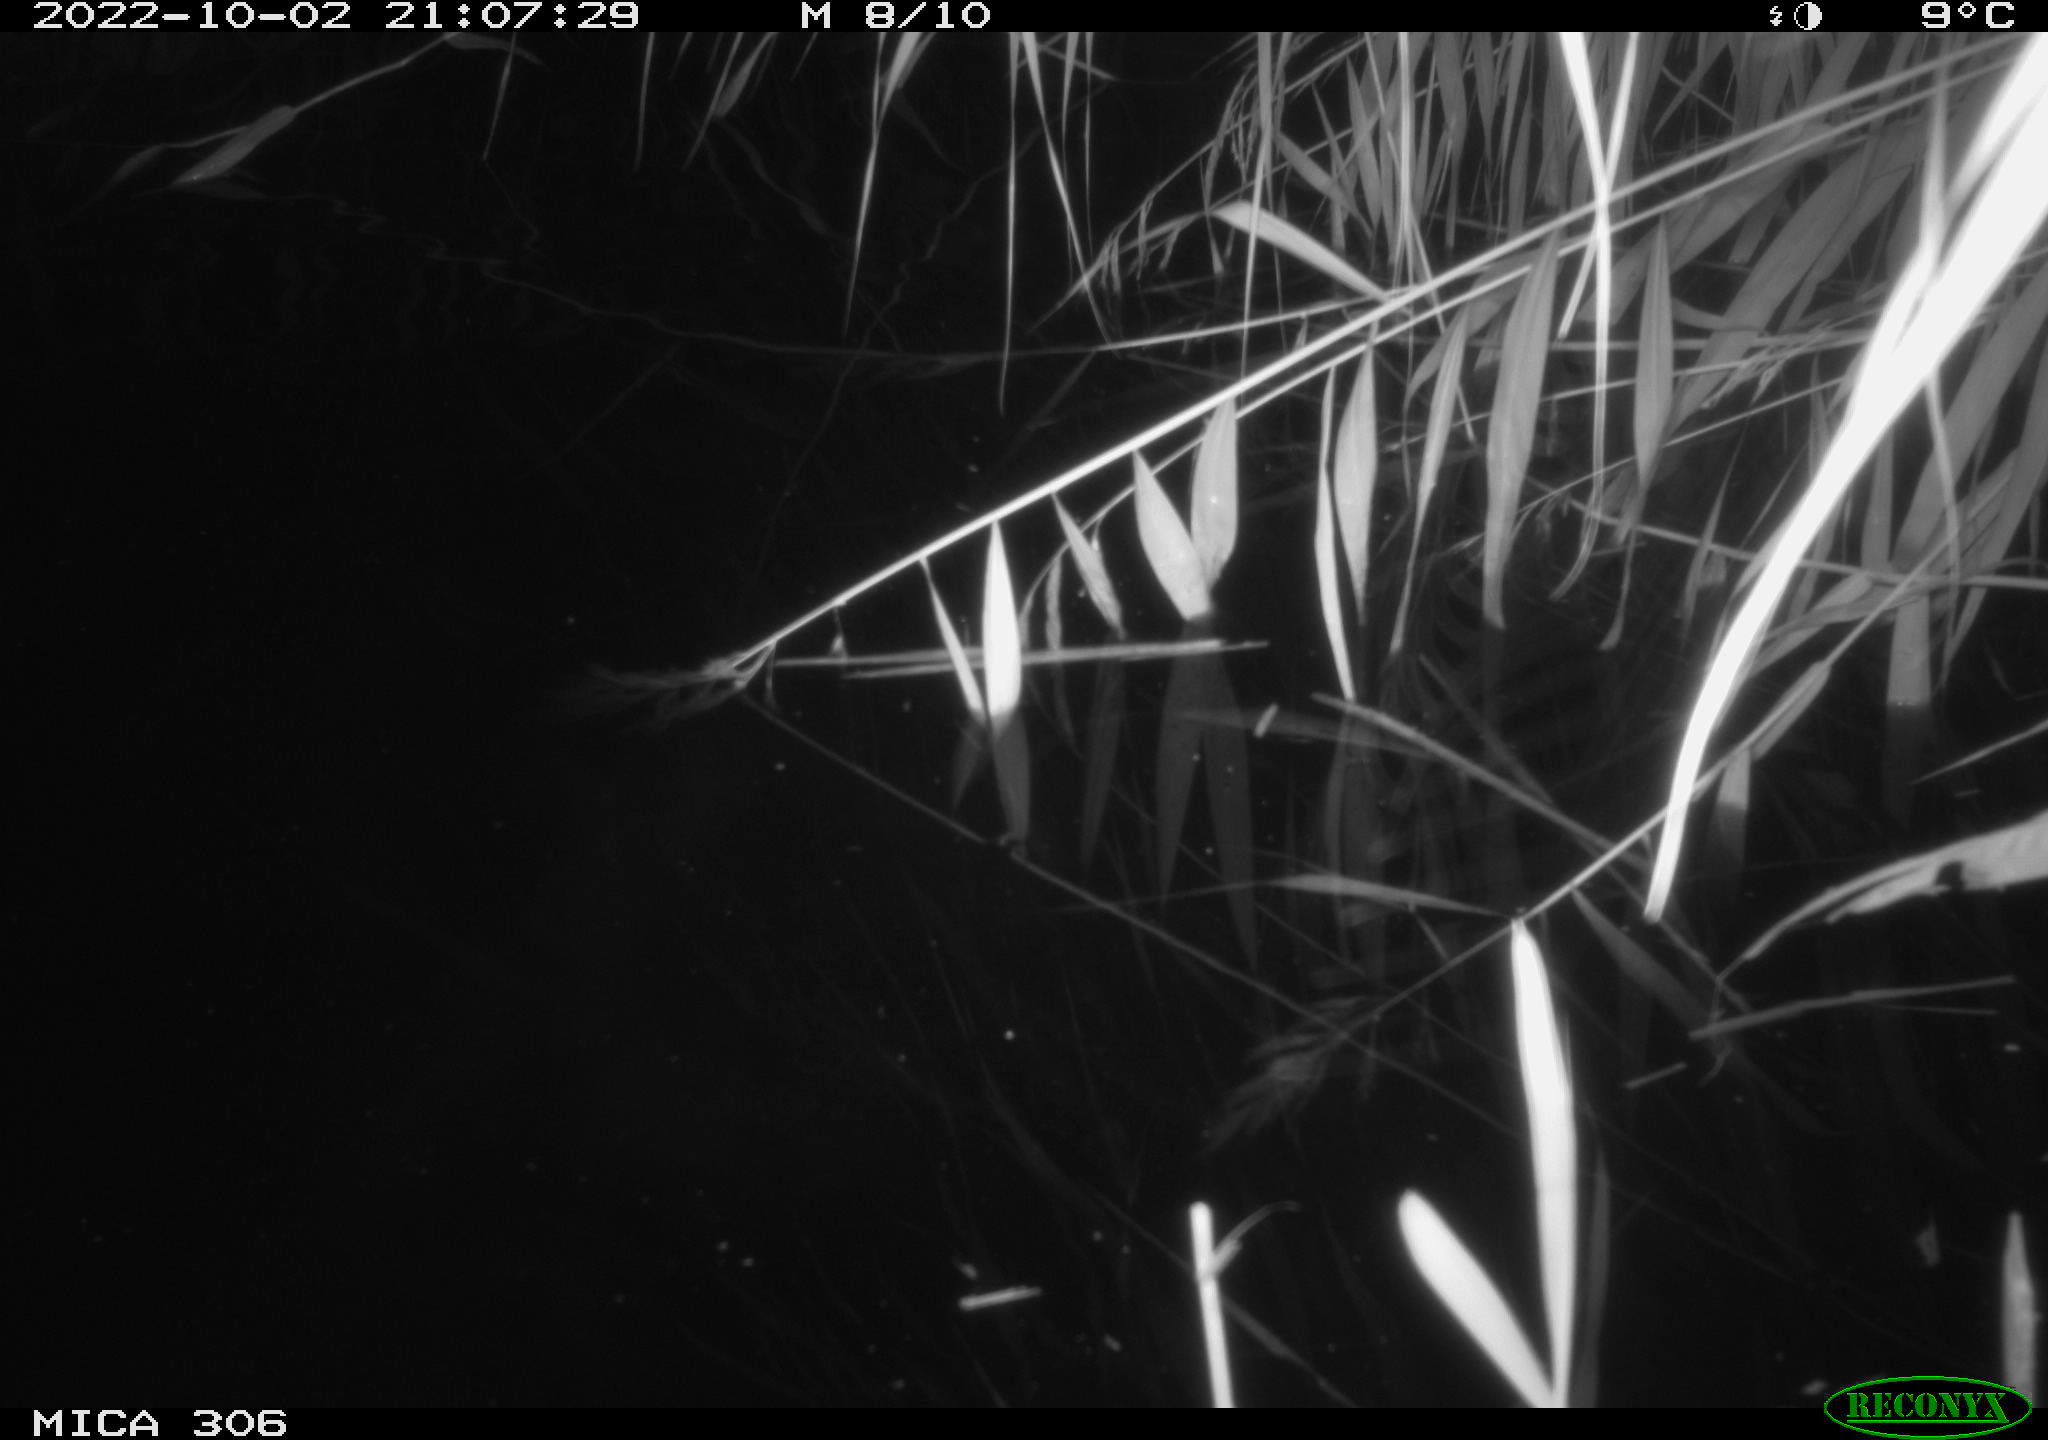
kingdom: Animalia
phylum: Chordata
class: Mammalia
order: Rodentia
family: Muridae
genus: Rattus
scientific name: Rattus norvegicus
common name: Brown rat
